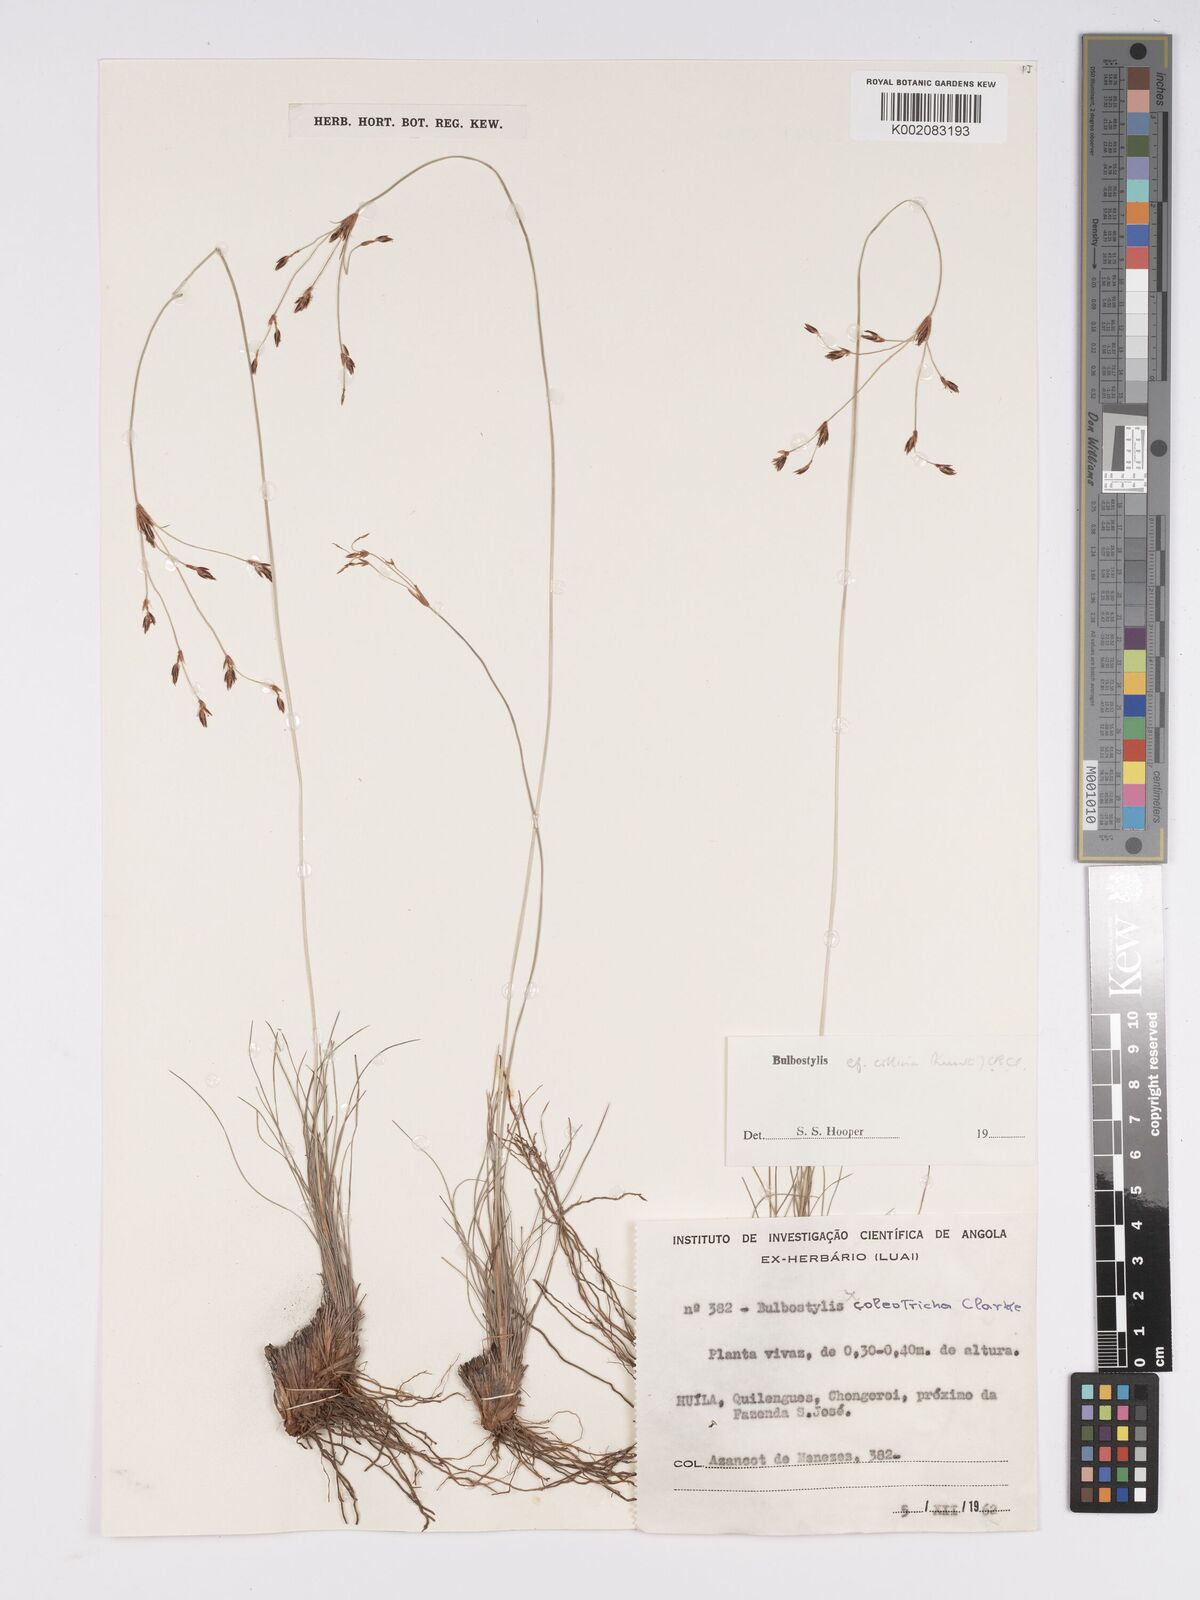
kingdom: Plantae
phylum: Tracheophyta
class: Liliopsida
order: Poales
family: Cyperaceae
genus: Bulbostylis
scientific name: Bulbostylis contexta
